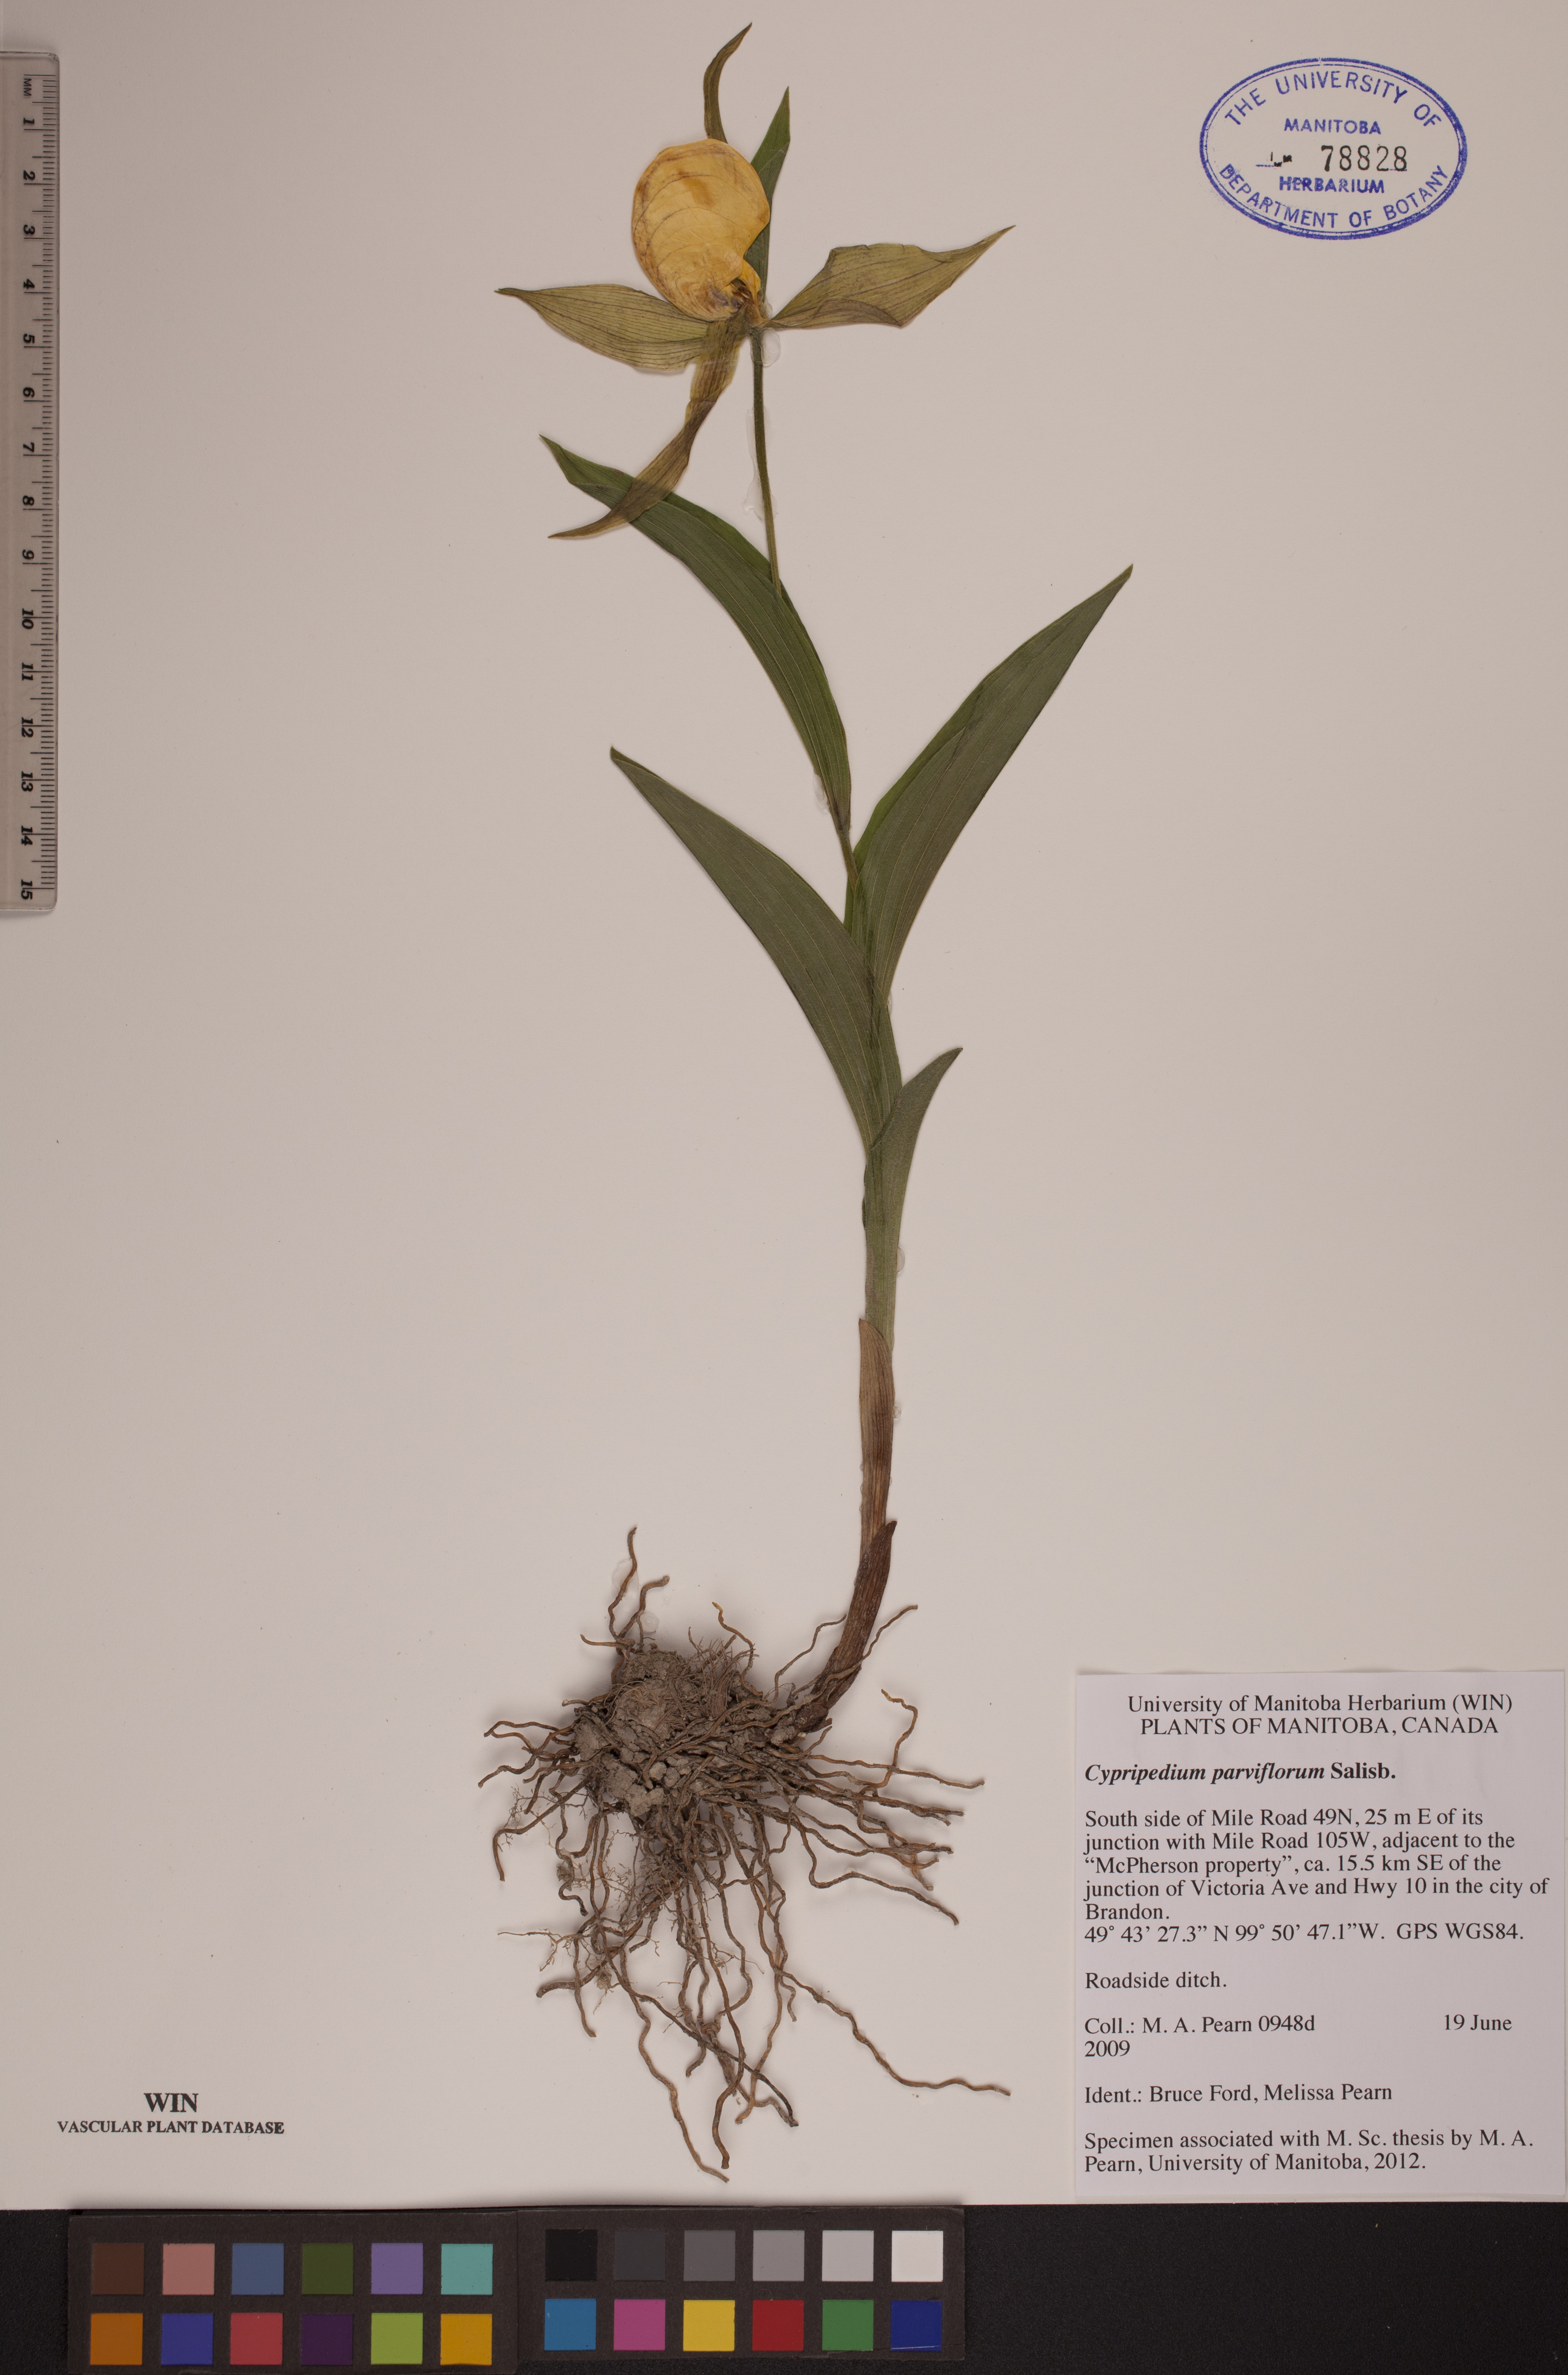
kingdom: Plantae
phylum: Tracheophyta
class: Liliopsida
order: Asparagales
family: Orchidaceae
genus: Cypripedium
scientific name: Cypripedium parviflorum
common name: American yellow lady's-slipper
